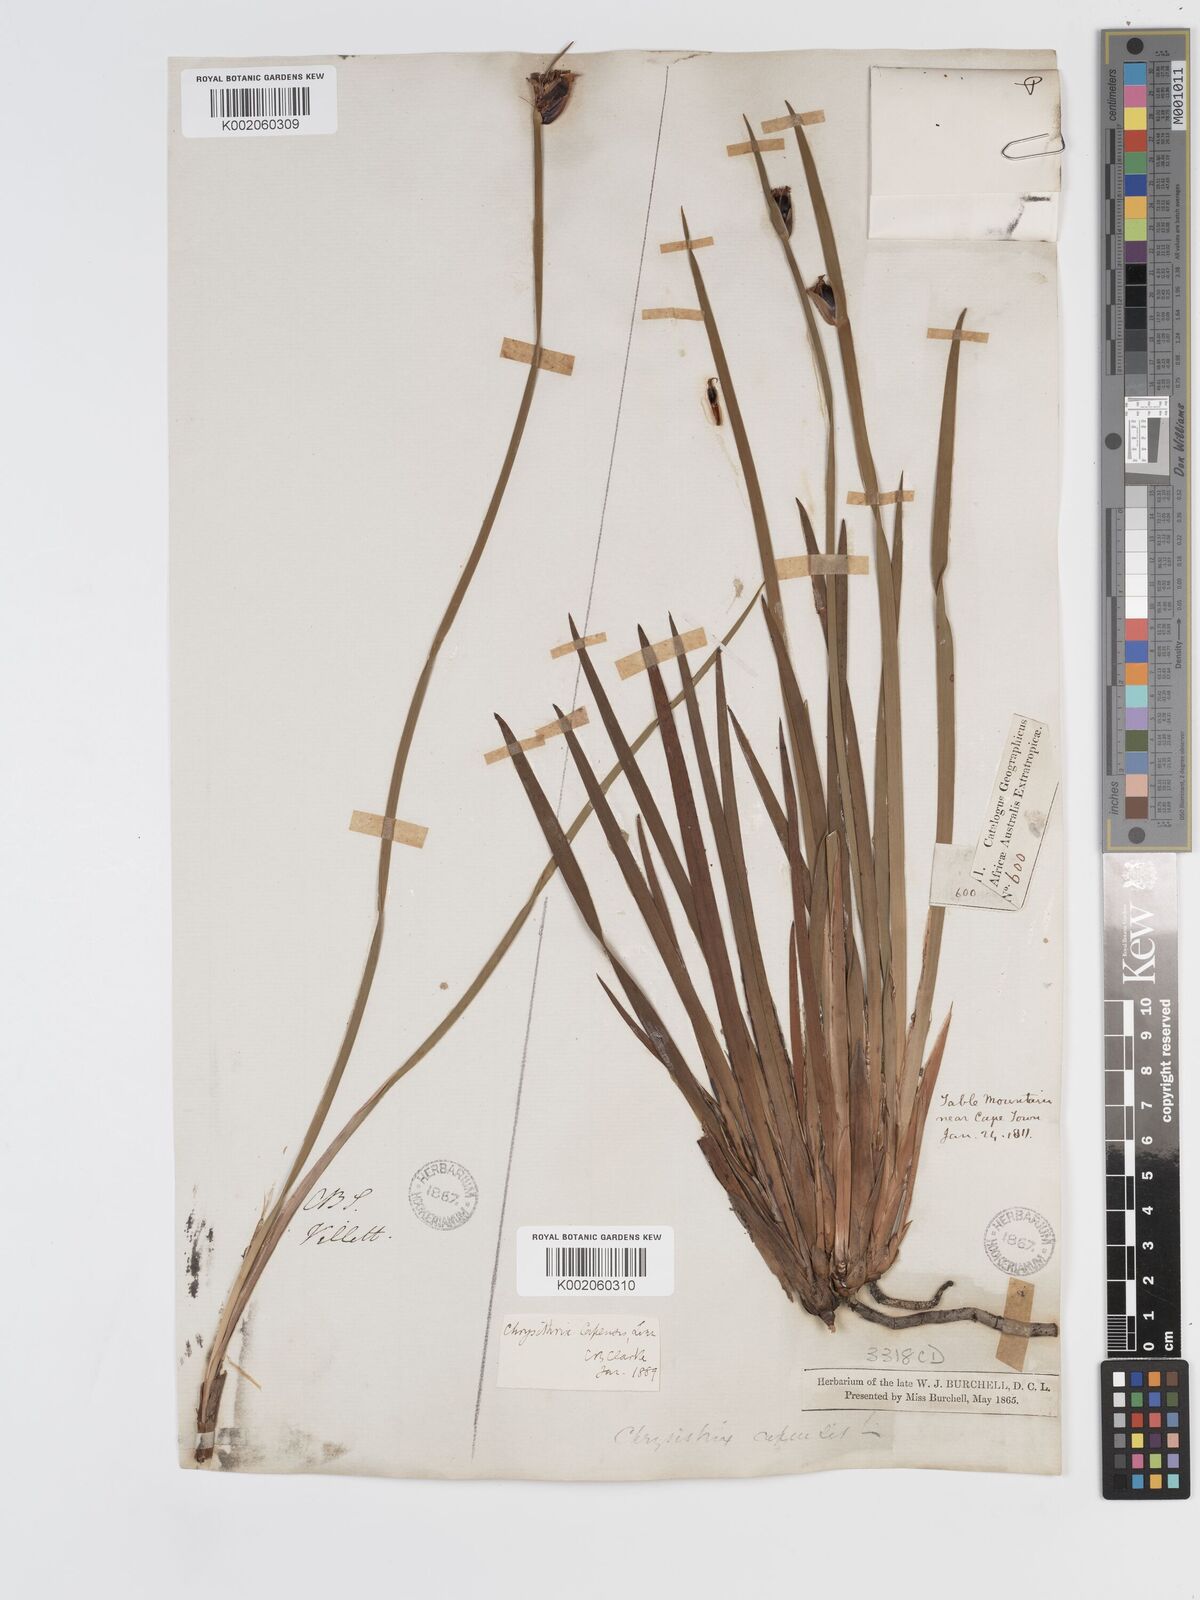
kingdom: Plantae
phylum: Tracheophyta
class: Liliopsida
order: Poales
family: Cyperaceae
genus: Chrysitrix
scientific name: Chrysitrix capensis
